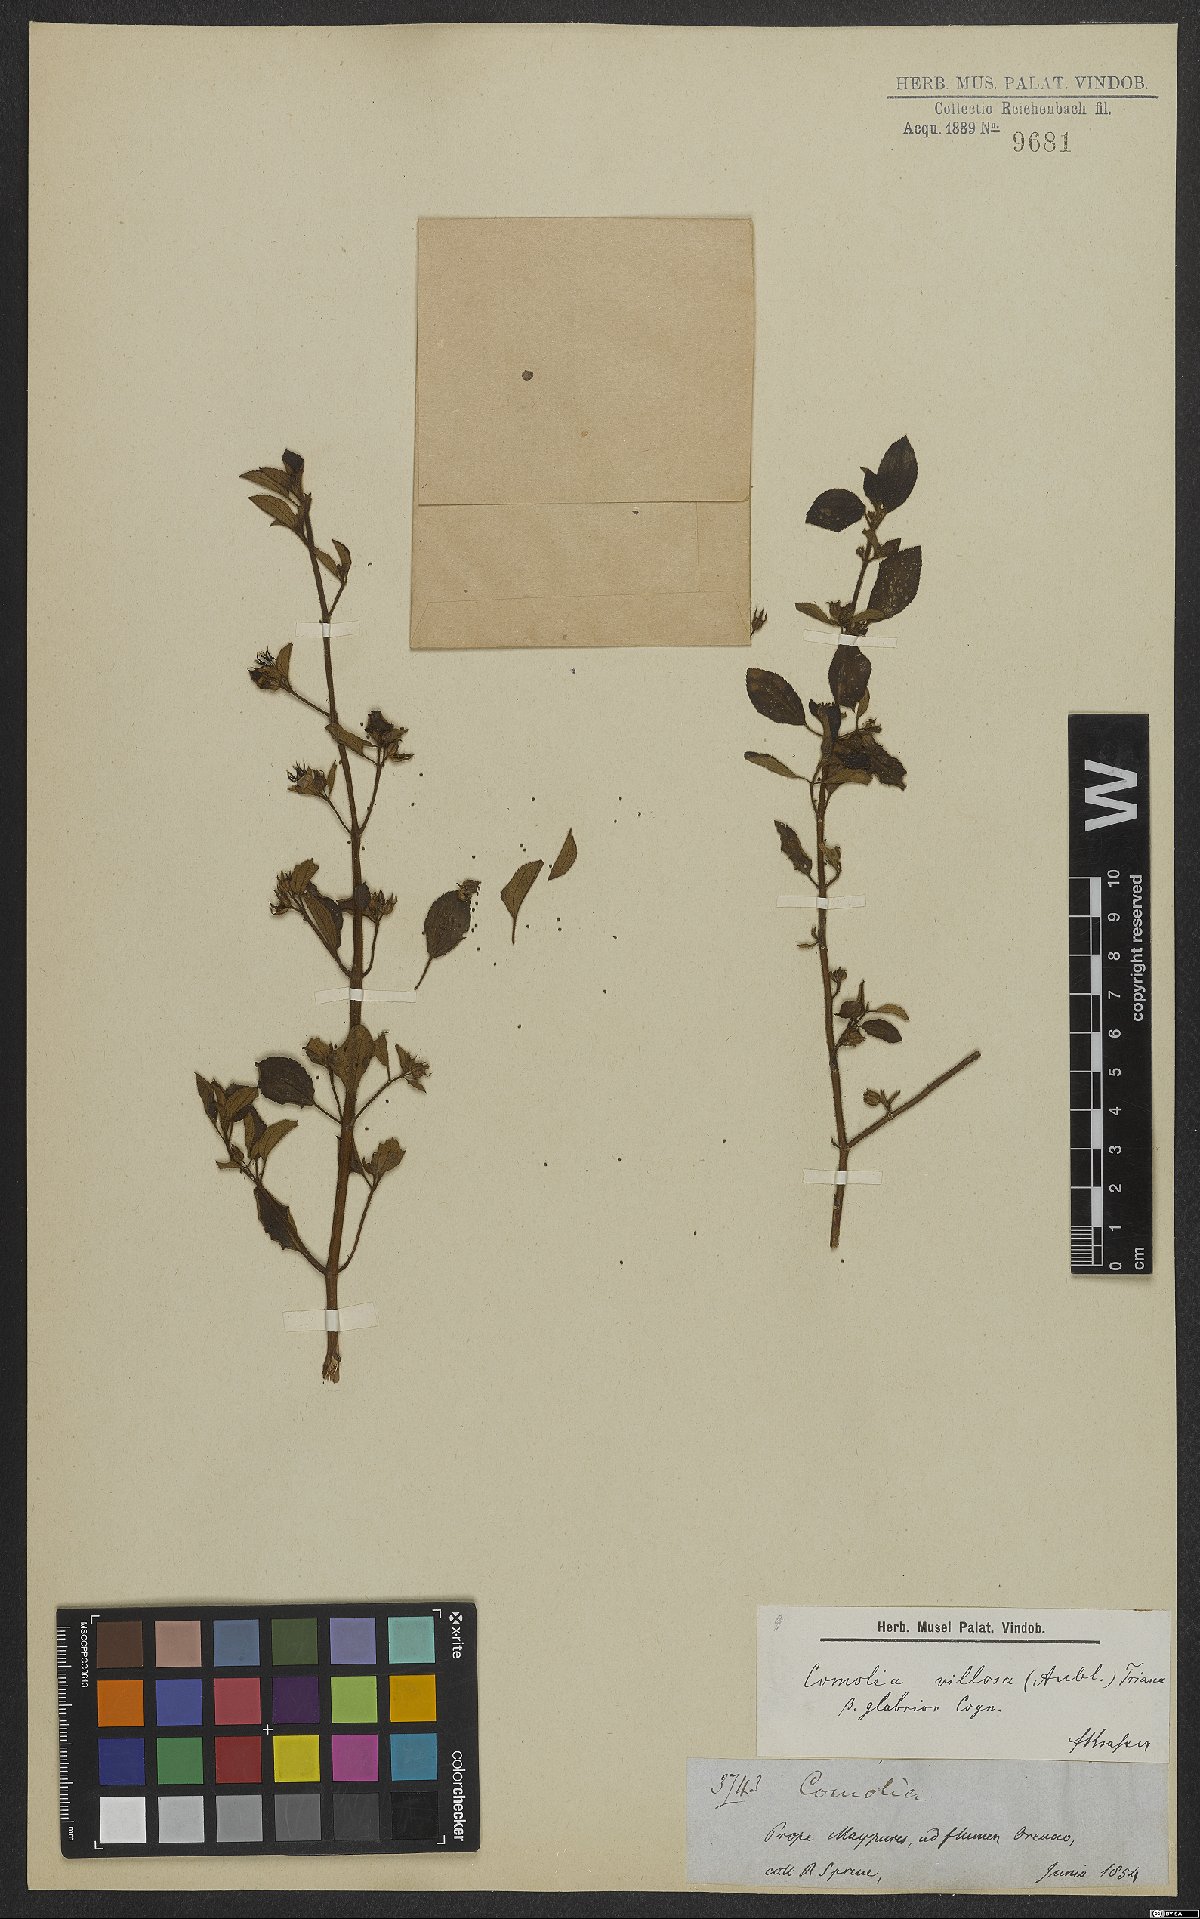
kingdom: Plantae
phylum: Tracheophyta
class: Magnoliopsida
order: Myrtales
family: Melastomataceae
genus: Comolia
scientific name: Comolia villosa
